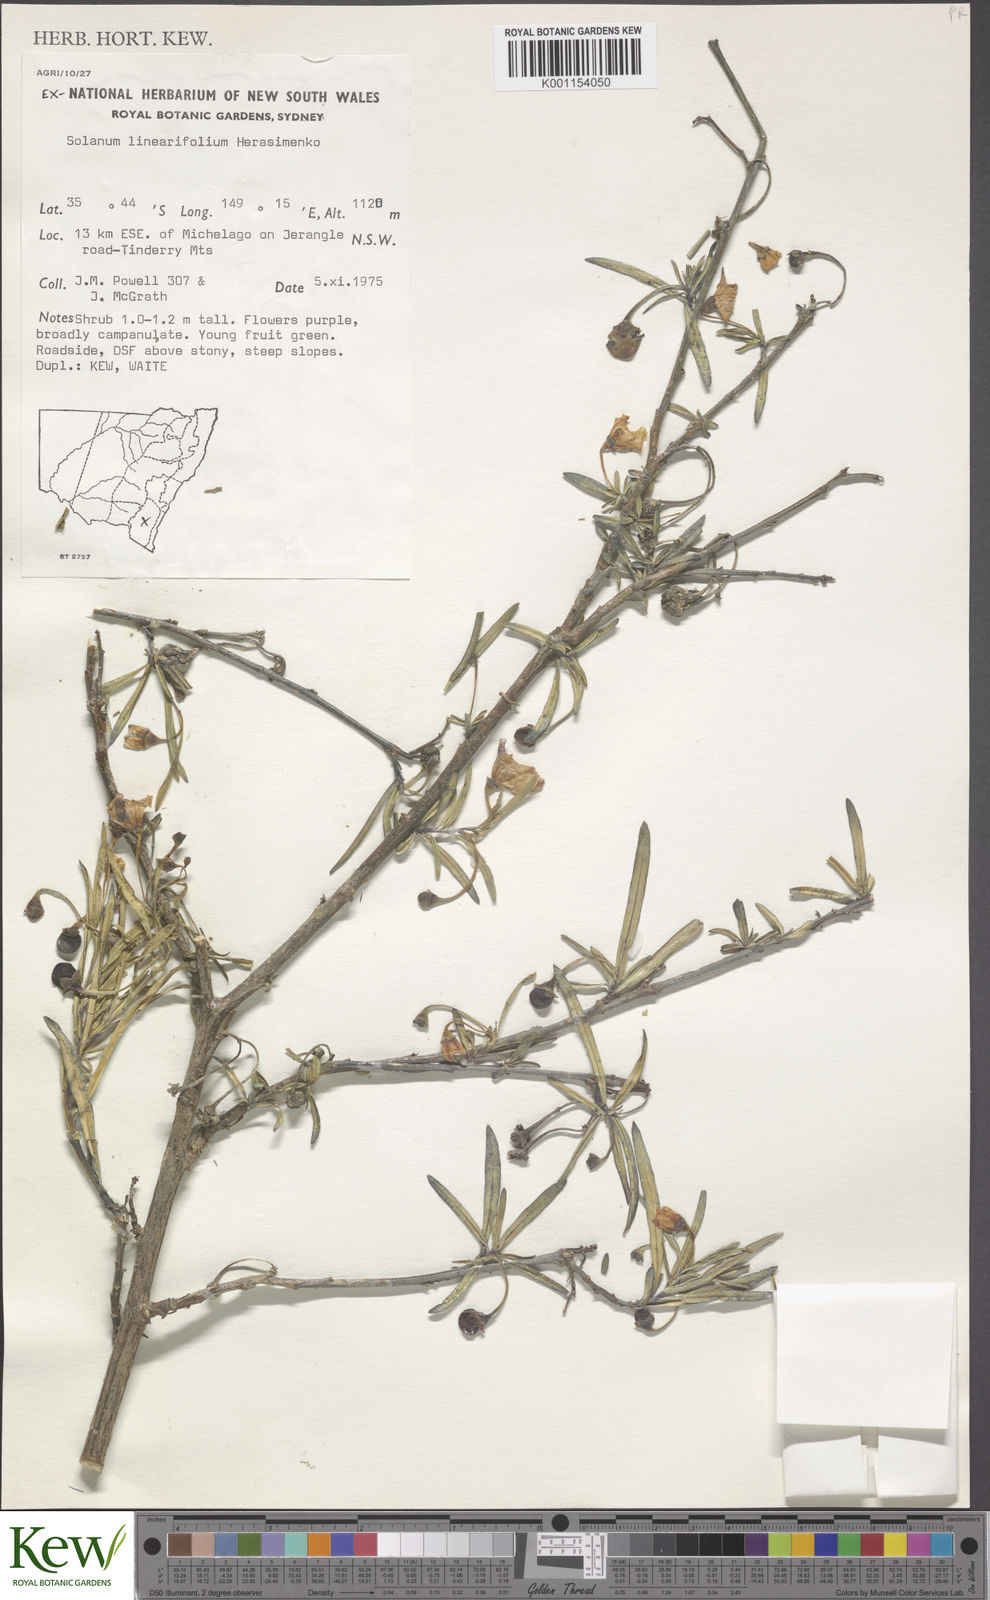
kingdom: Plantae
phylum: Tracheophyta
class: Magnoliopsida
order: Solanales
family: Solanaceae
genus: Solanum
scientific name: Solanum linearifolium
